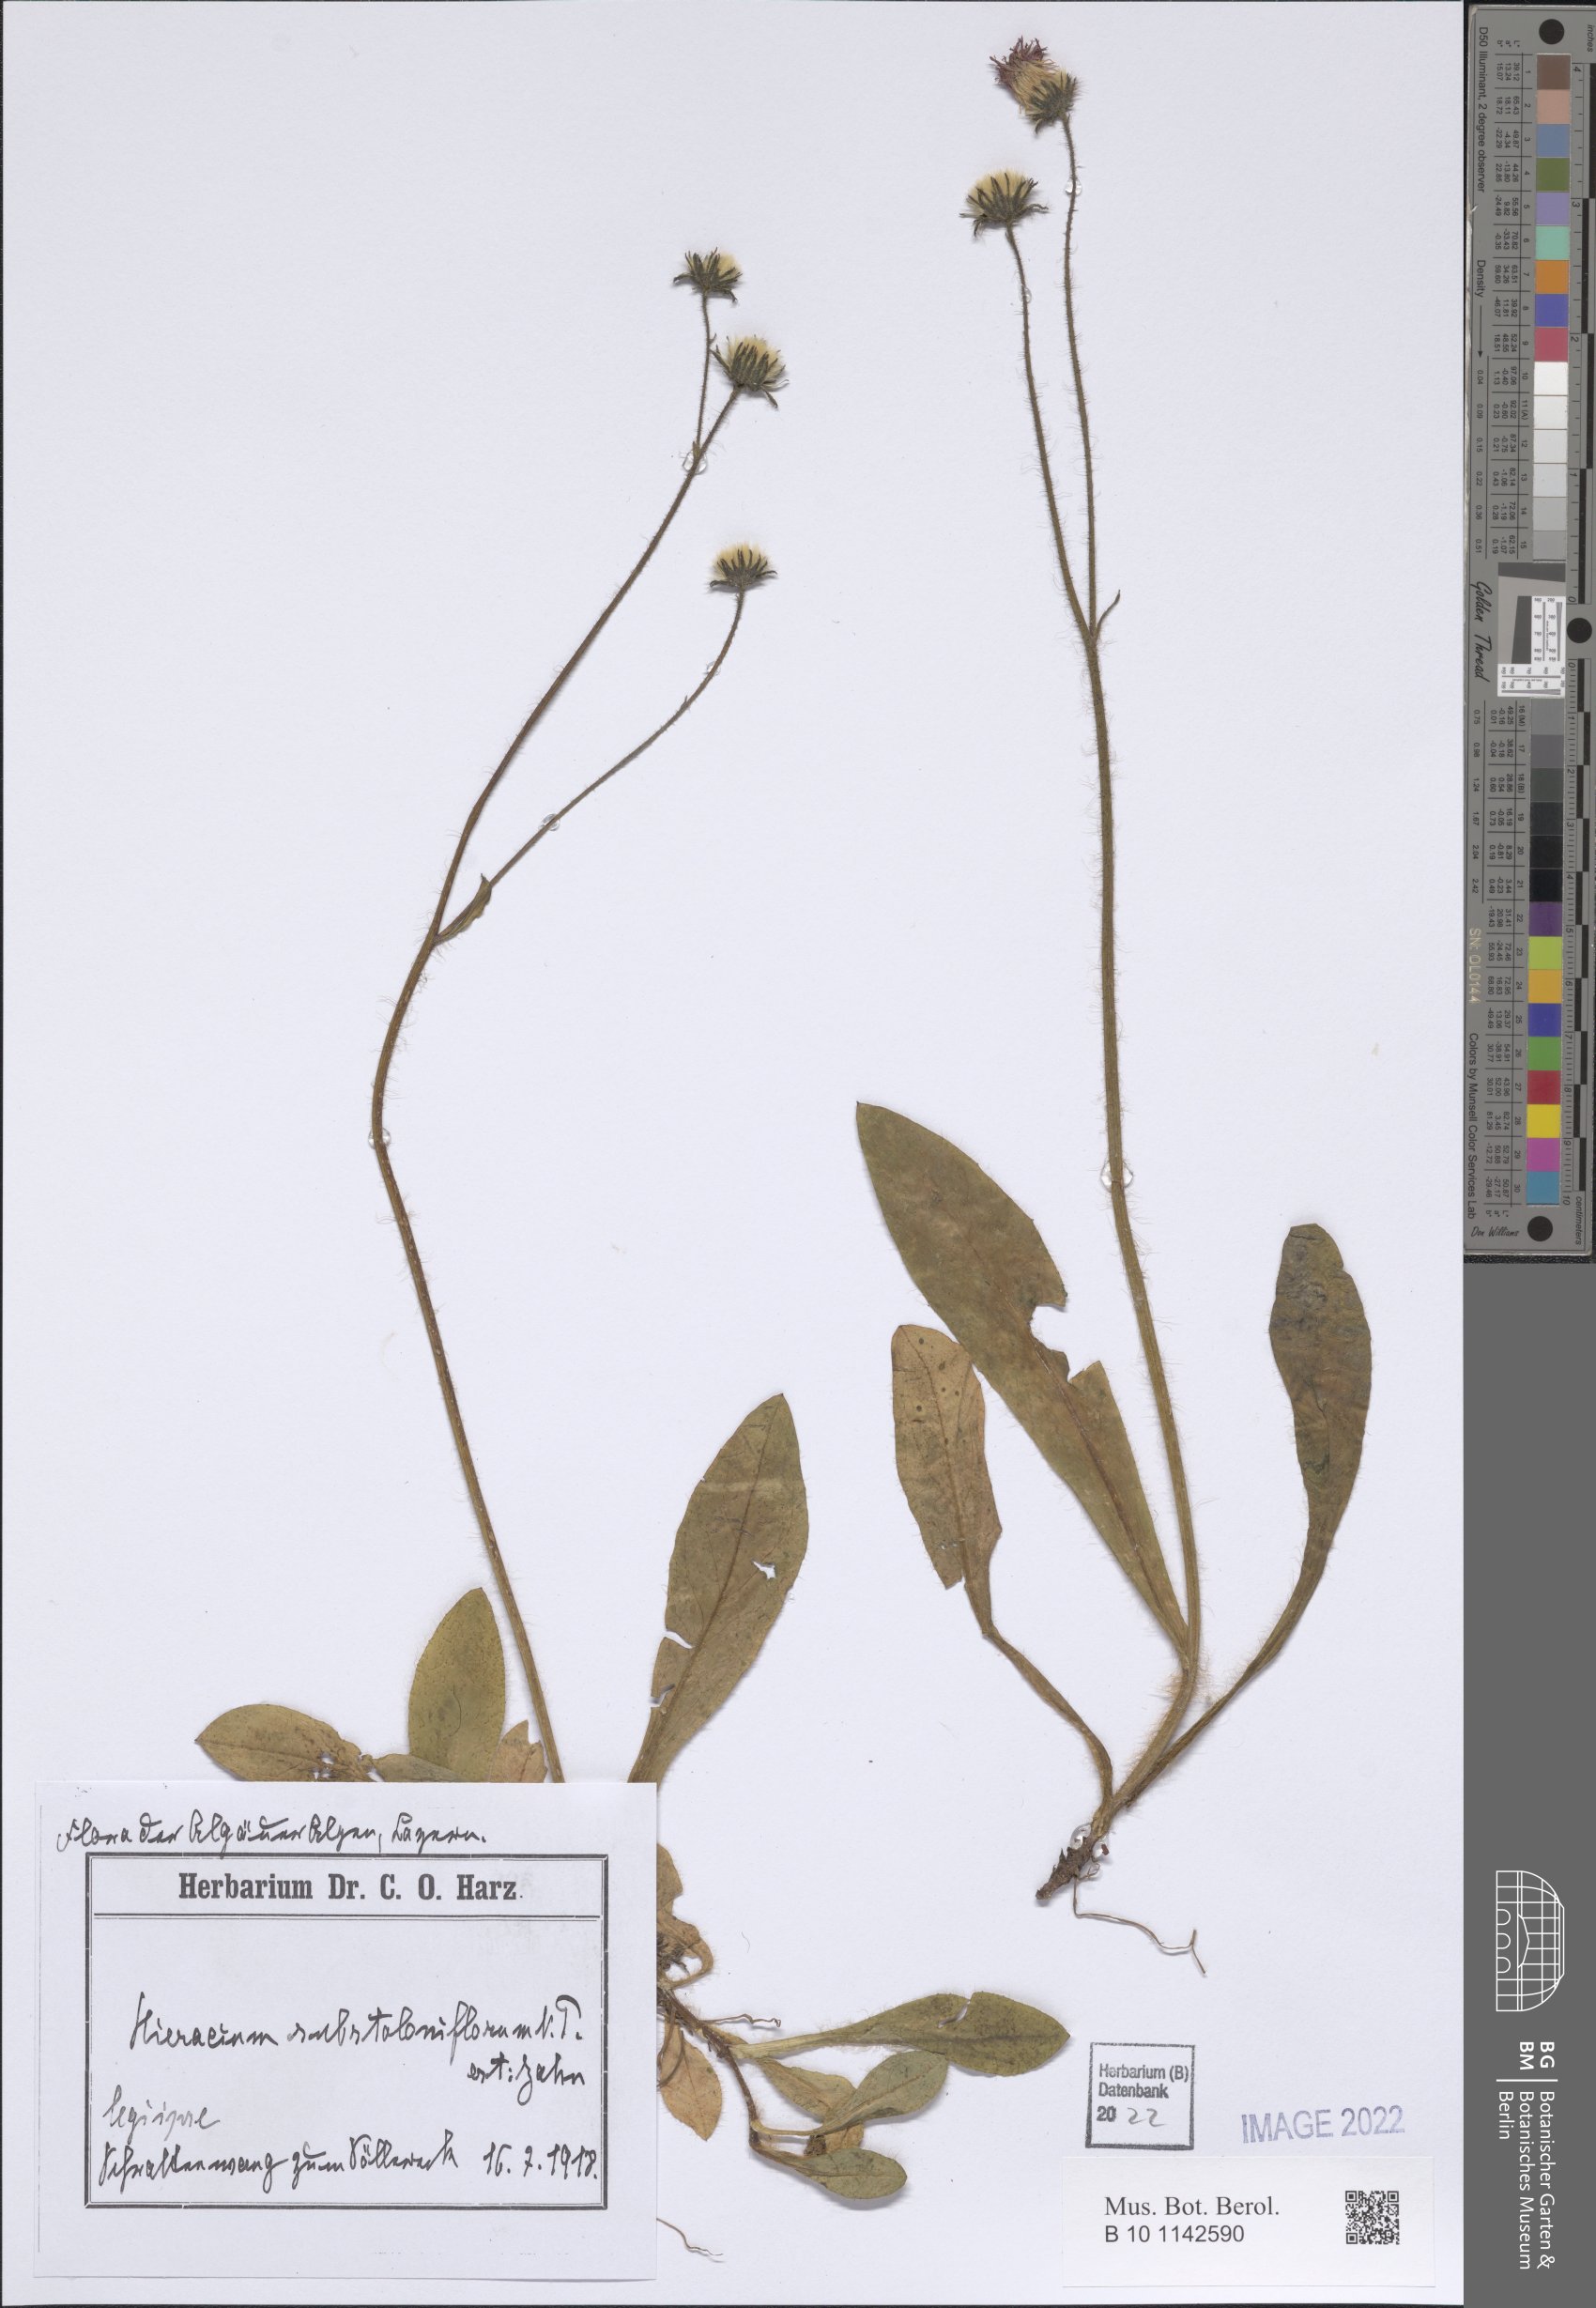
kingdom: Plantae
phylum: Tracheophyta
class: Magnoliopsida
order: Asterales
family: Asteraceae
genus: Pilosella
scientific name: Pilosella stoloniflora
